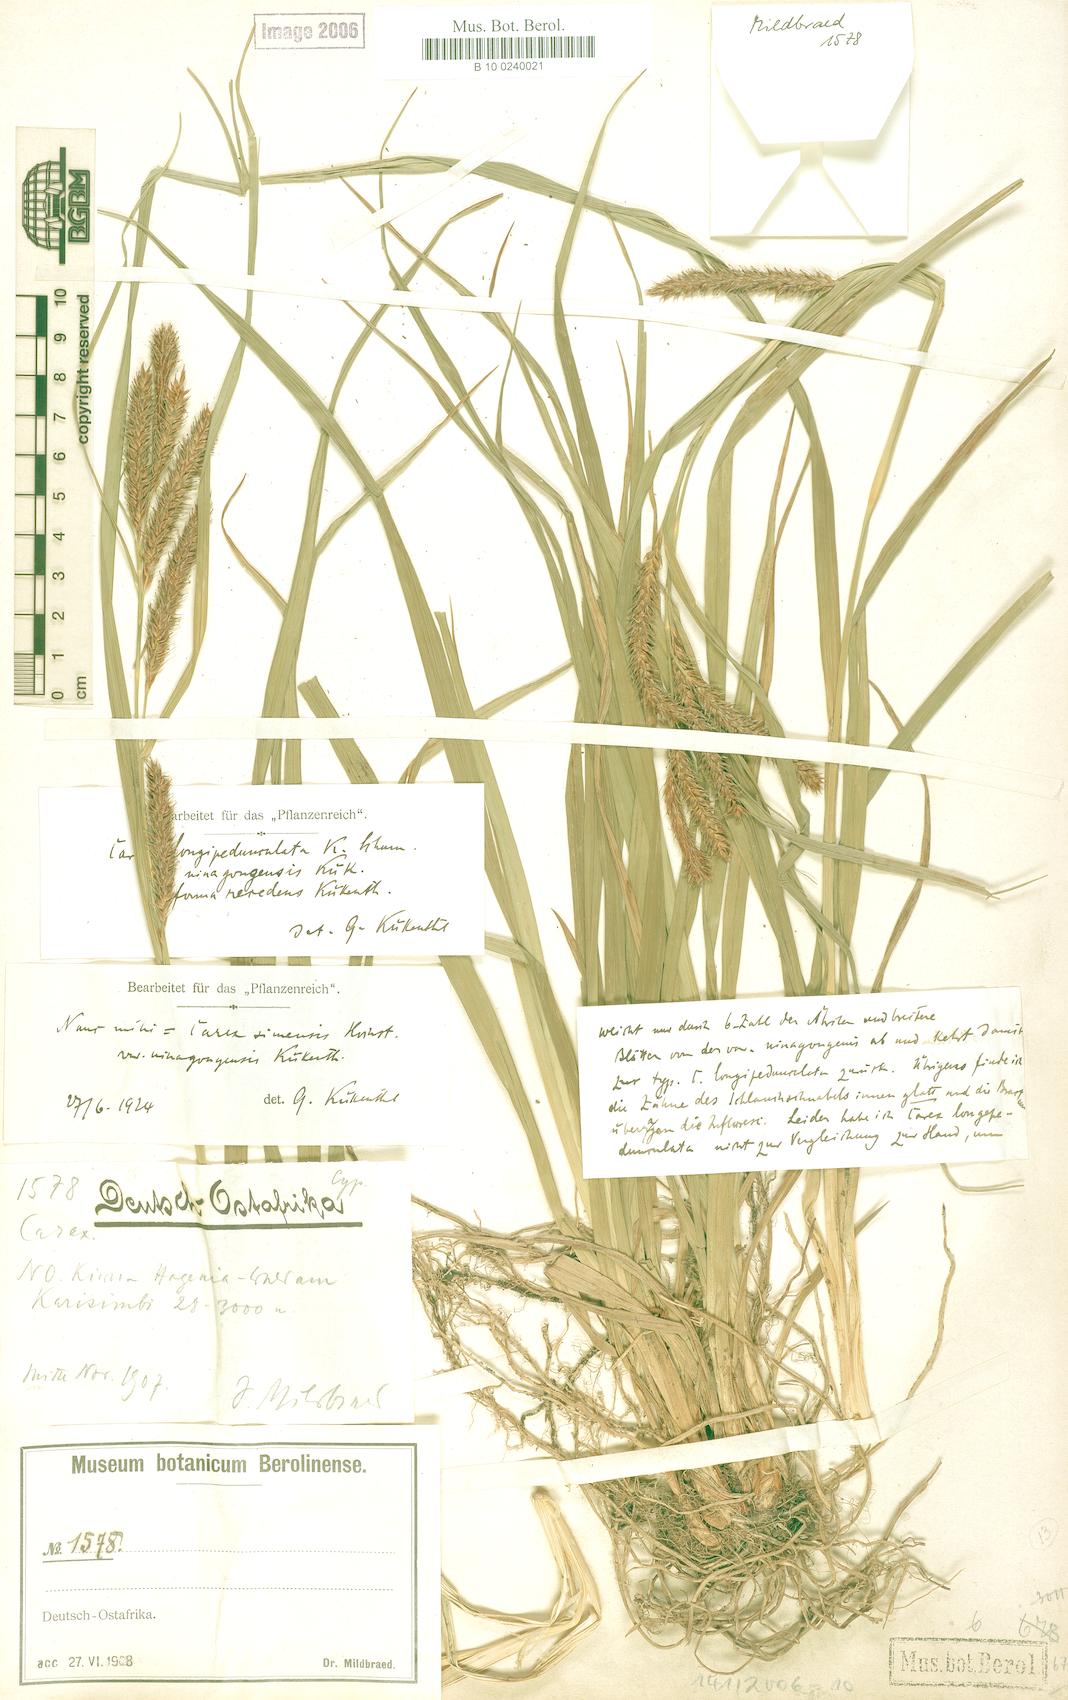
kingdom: Plantae
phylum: Tracheophyta
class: Liliopsida
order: Poales
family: Cyperaceae
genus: Carex
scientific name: Carex petitiana
